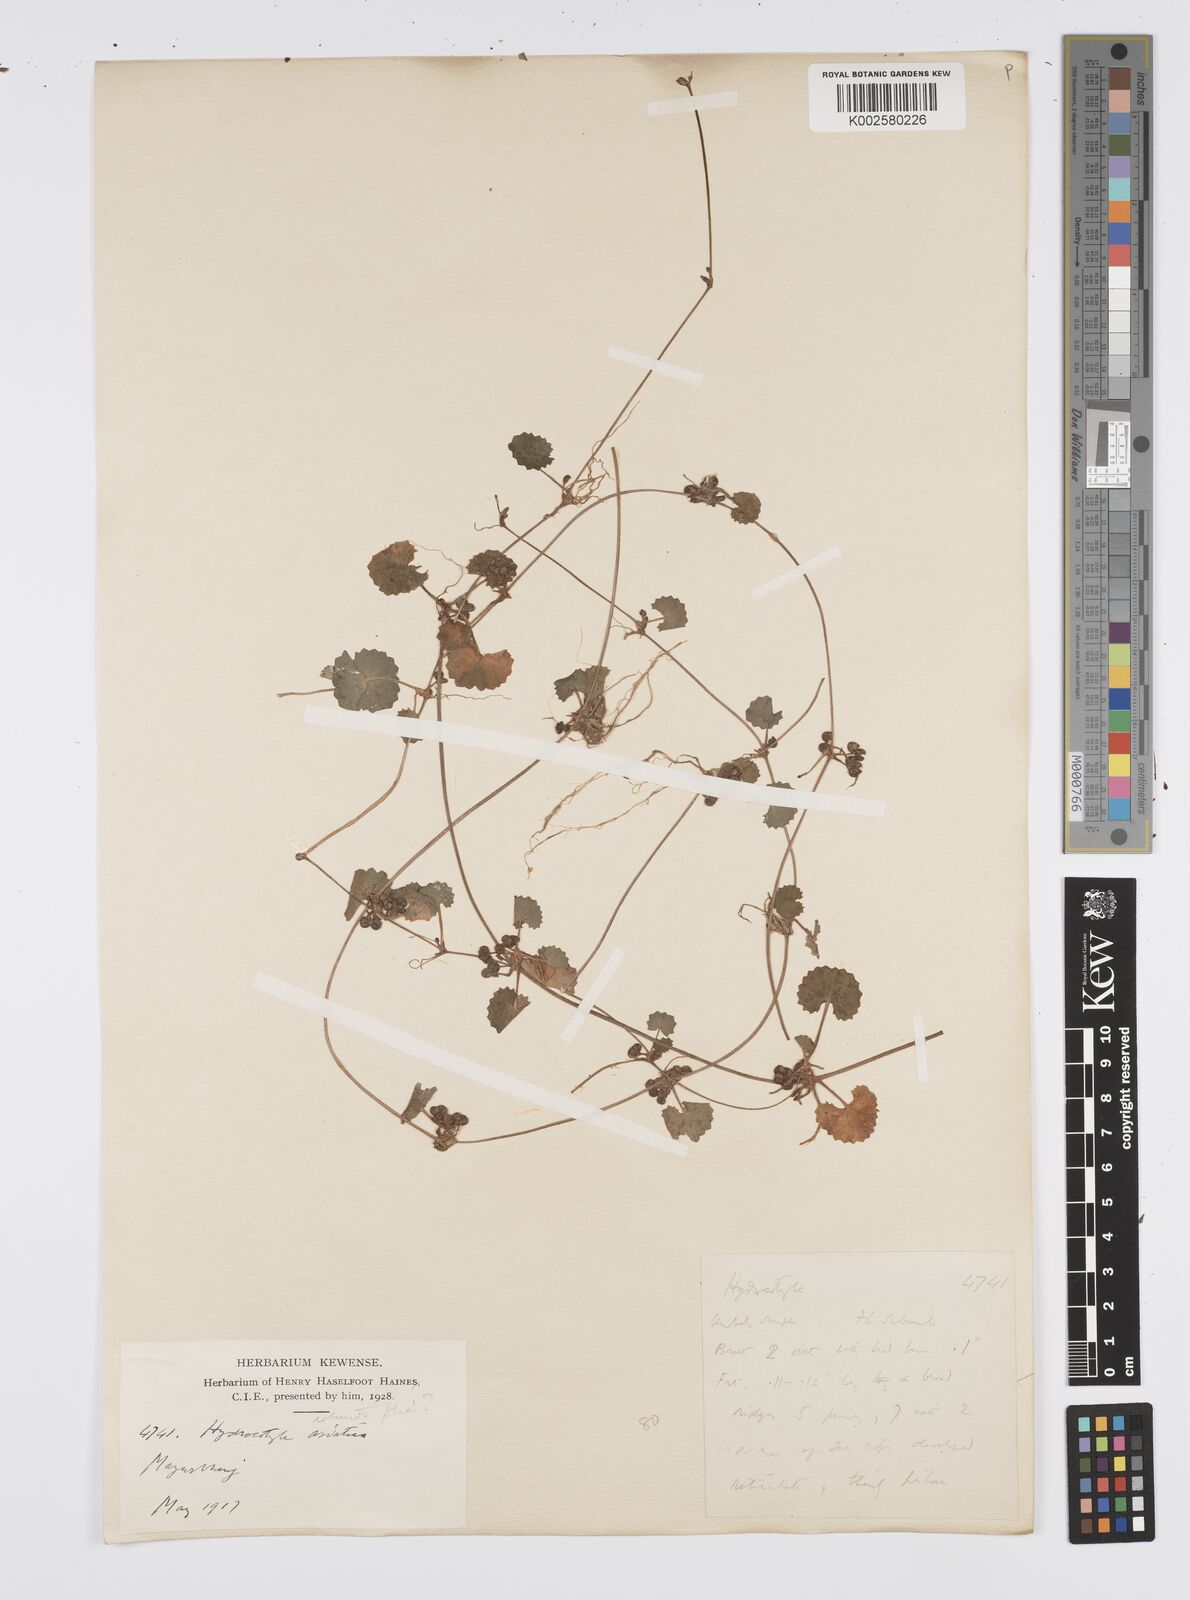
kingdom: Plantae
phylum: Tracheophyta
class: Magnoliopsida
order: Apiales
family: Apiaceae
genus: Centella
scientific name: Centella asiatica
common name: Spadeleaf
